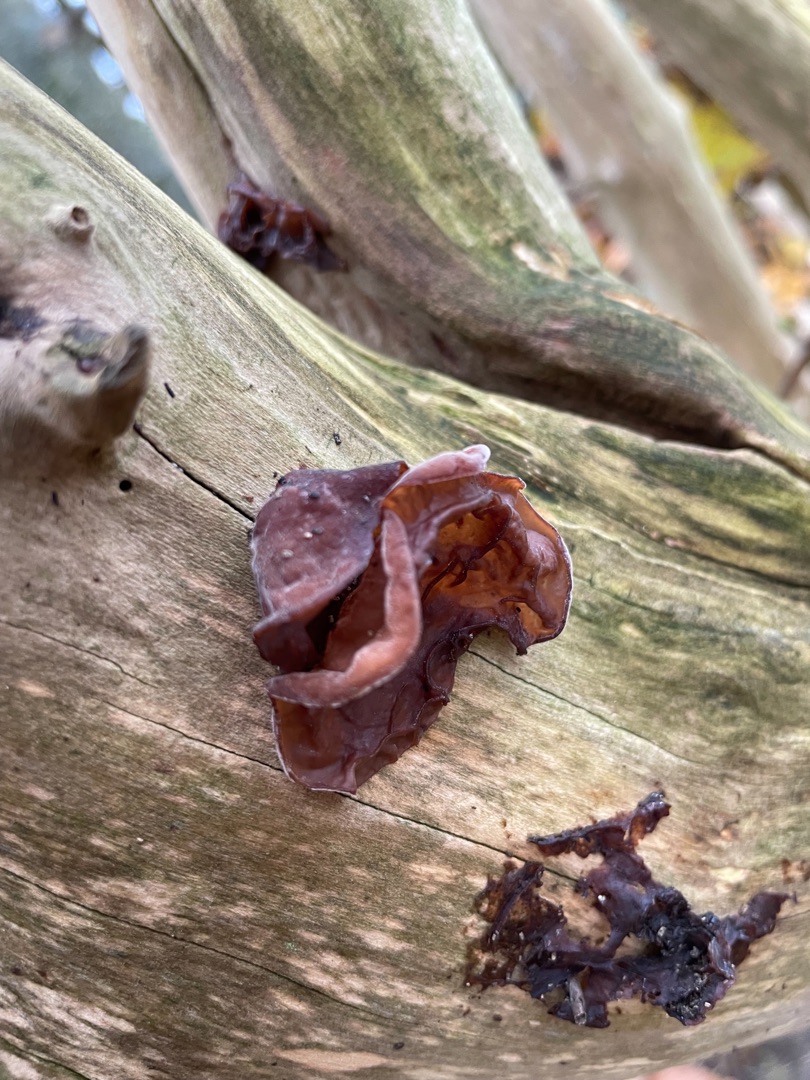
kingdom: Fungi
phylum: Basidiomycota
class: Agaricomycetes
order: Auriculariales
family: Auriculariaceae
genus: Auricularia
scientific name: Auricularia auricula-judae
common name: Almindelig judasøre
